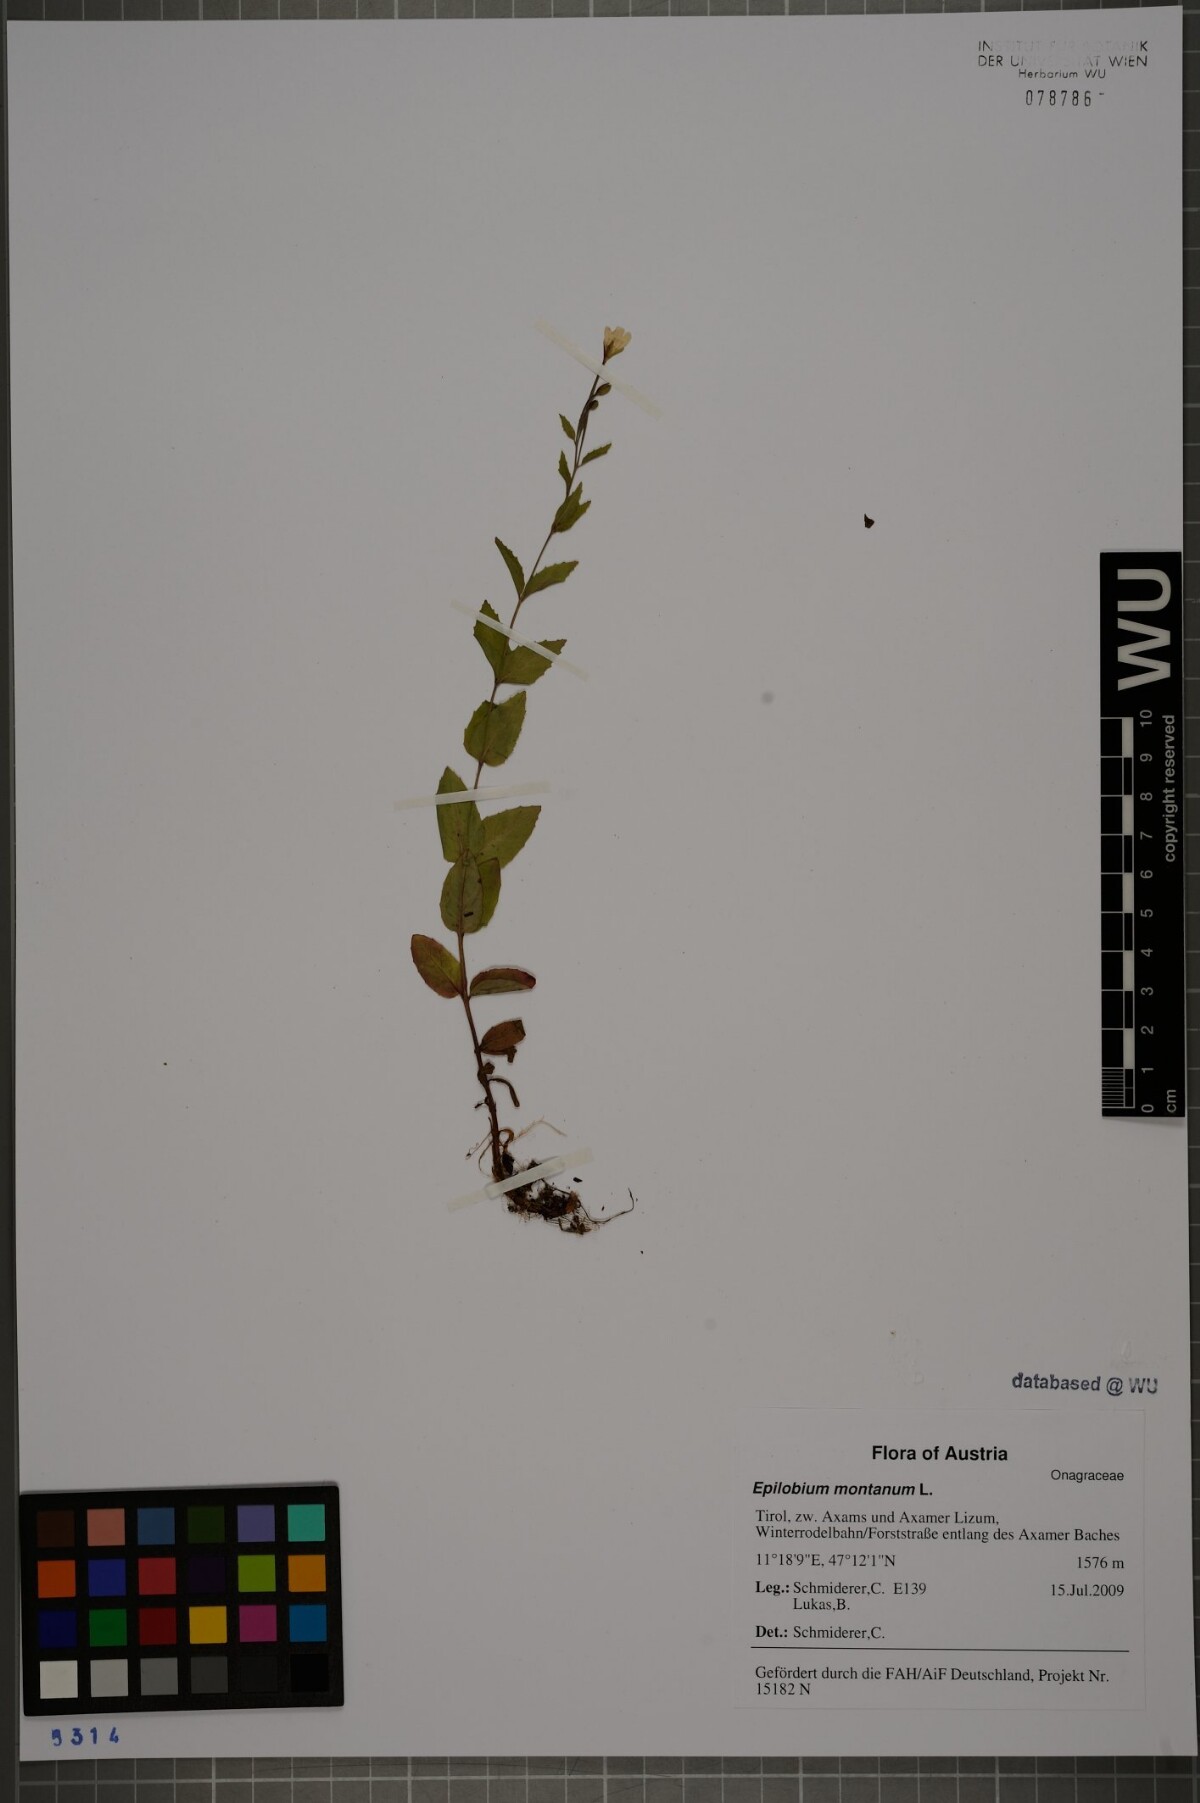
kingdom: Plantae
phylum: Tracheophyta
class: Magnoliopsida
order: Myrtales
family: Onagraceae
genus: Epilobium
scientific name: Epilobium montanum
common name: Broad-leaved willowherb
